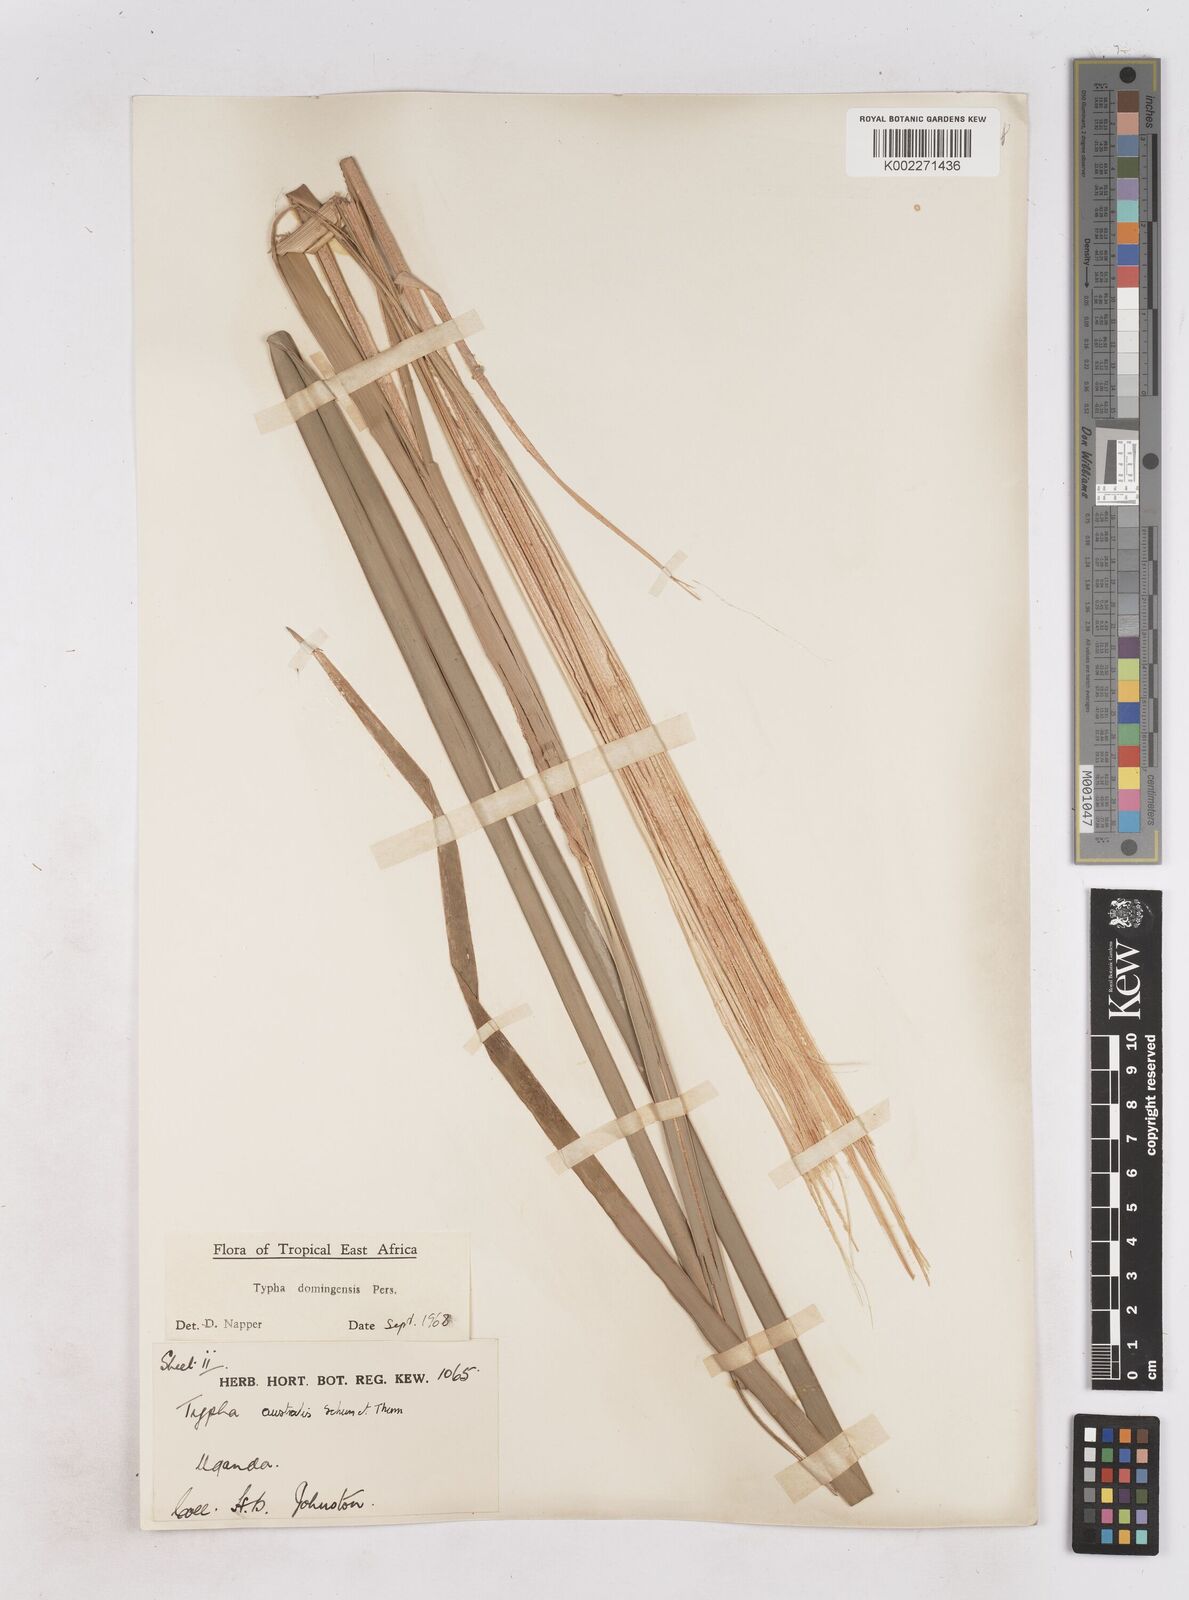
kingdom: Plantae
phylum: Tracheophyta
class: Liliopsida
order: Poales
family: Typhaceae
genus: Typha
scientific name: Typha domingensis
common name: Southern cattail
